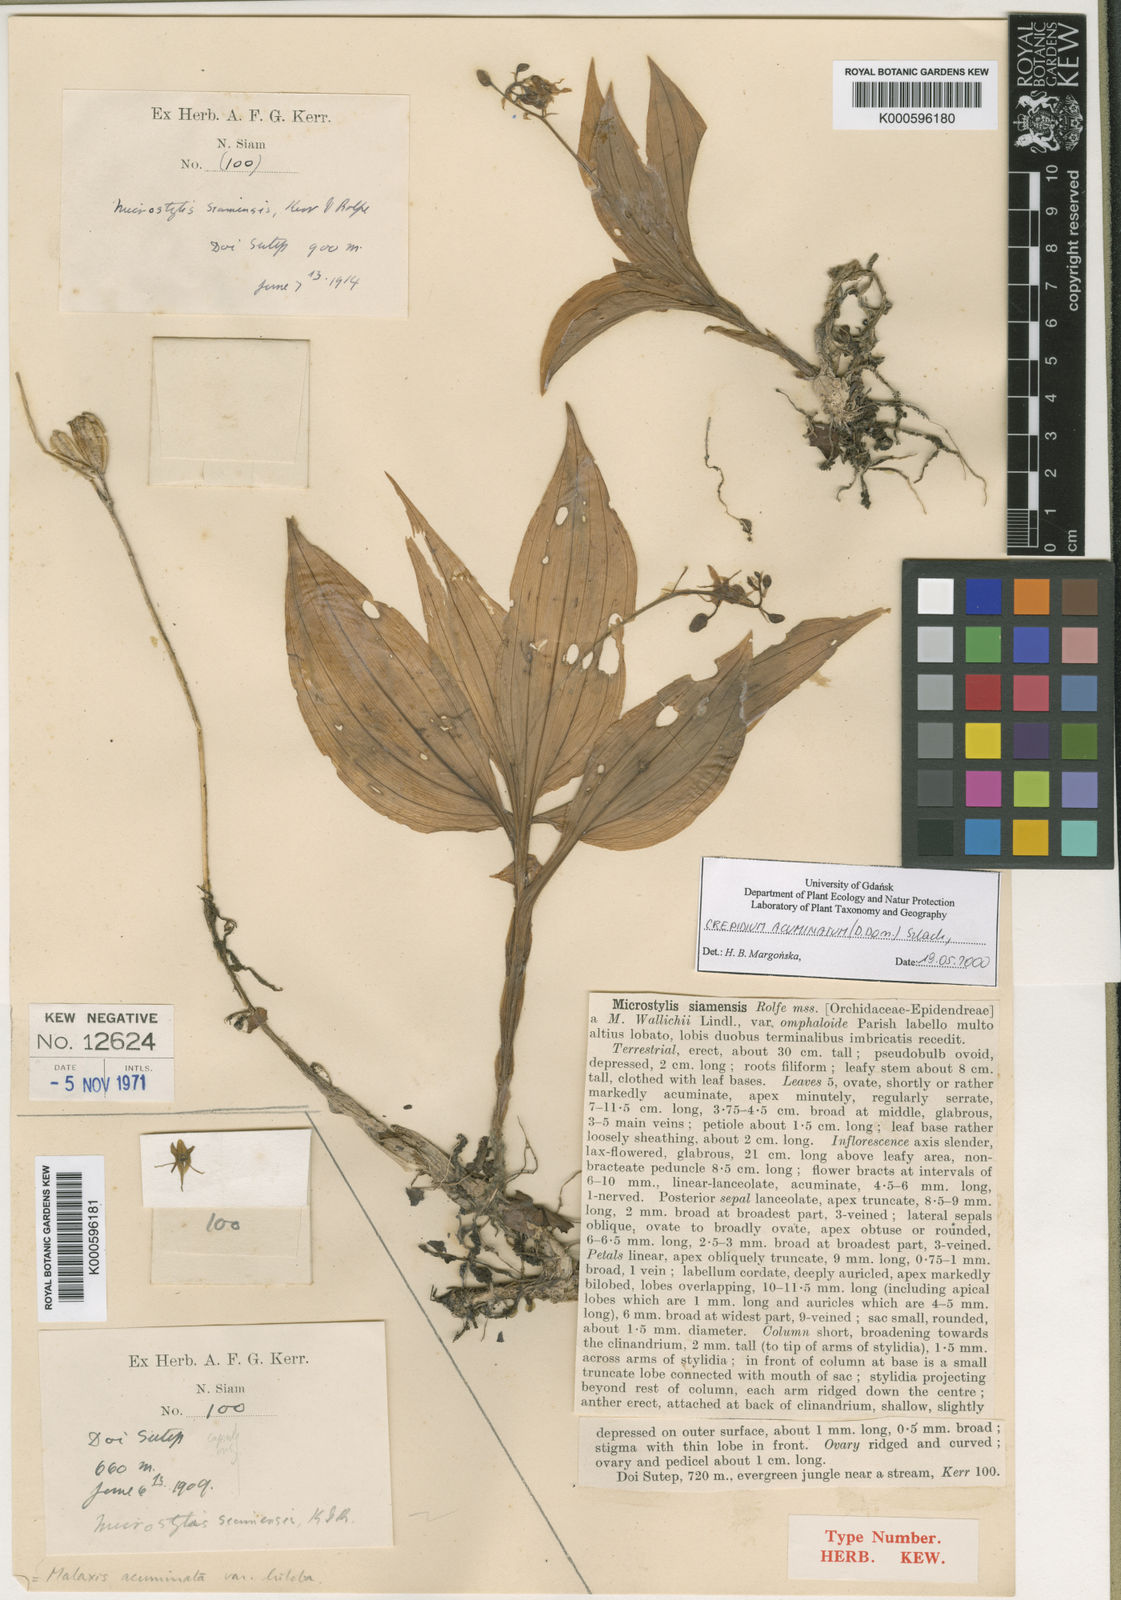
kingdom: Plantae
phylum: Tracheophyta
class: Liliopsida
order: Asparagales
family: Orchidaceae
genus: Crepidium
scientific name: Crepidium acuminatum
